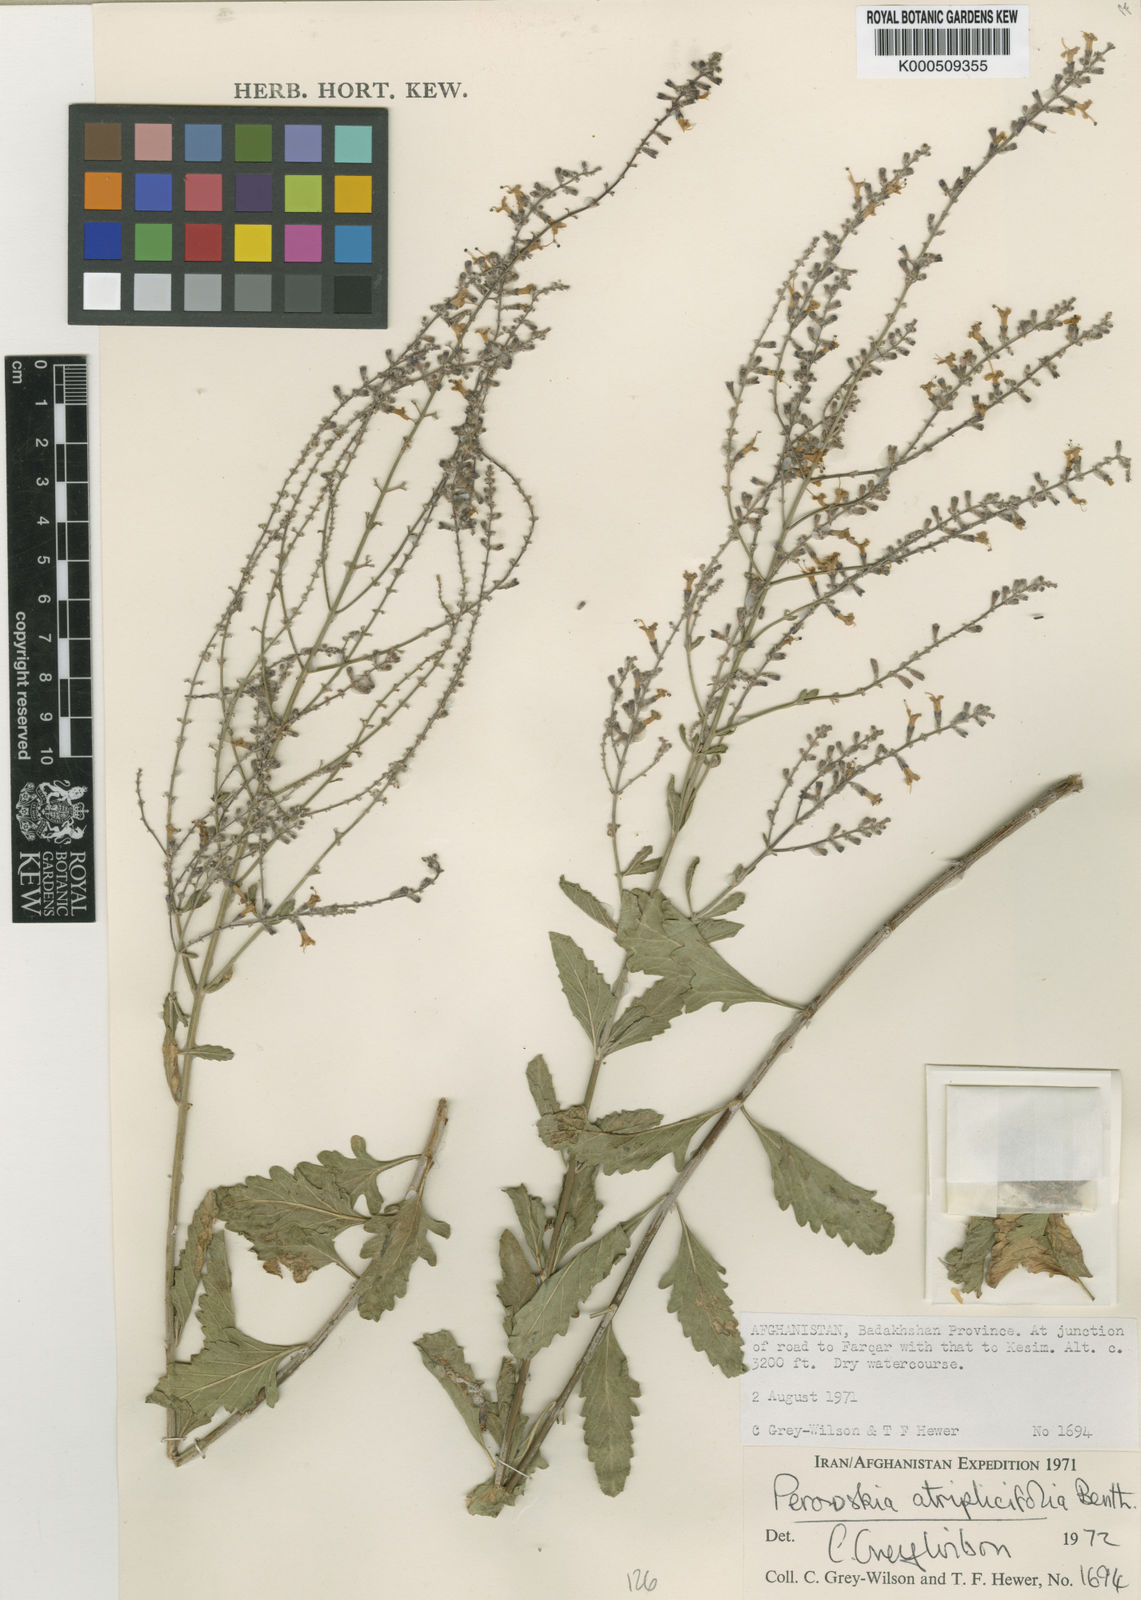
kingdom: Plantae
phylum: Tracheophyta
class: Magnoliopsida
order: Lamiales
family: Lamiaceae
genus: Salvia
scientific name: Salvia yangii
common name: Russian sage
